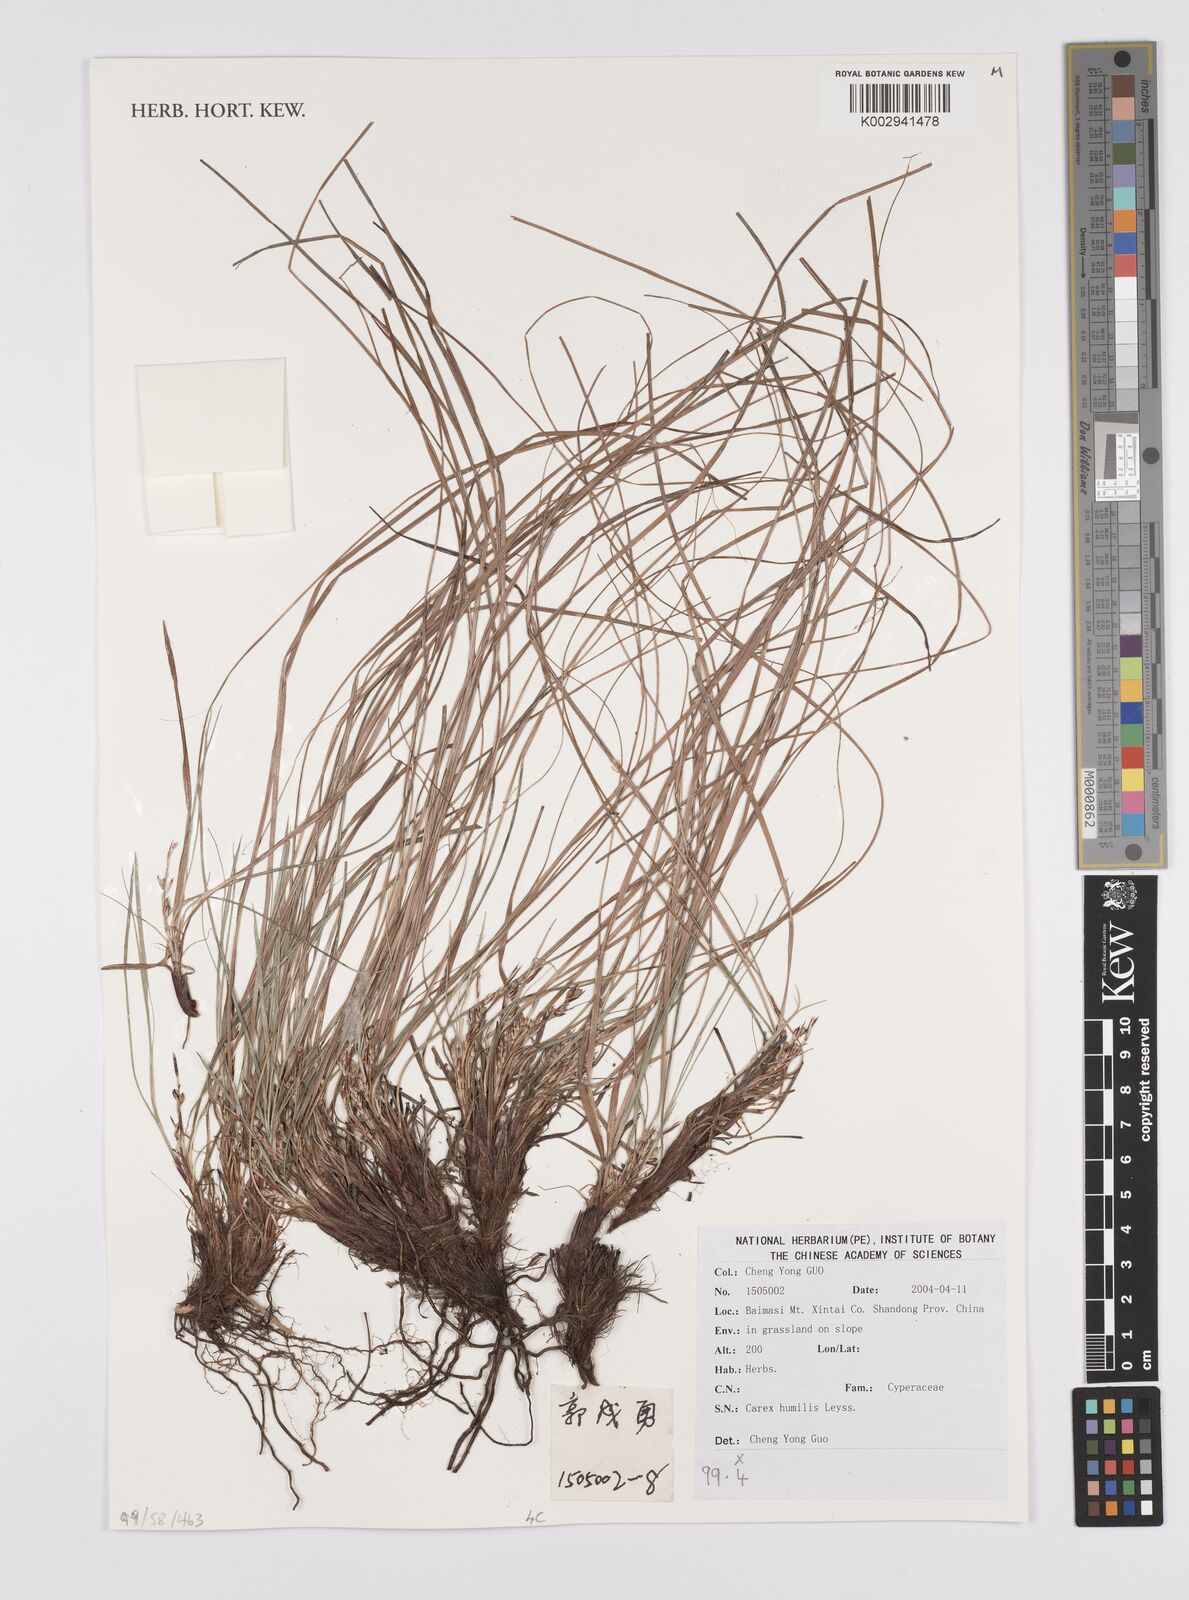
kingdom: Plantae
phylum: Tracheophyta
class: Liliopsida
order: Poales
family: Cyperaceae
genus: Carex
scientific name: Carex humilis
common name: Dwarf sedge
